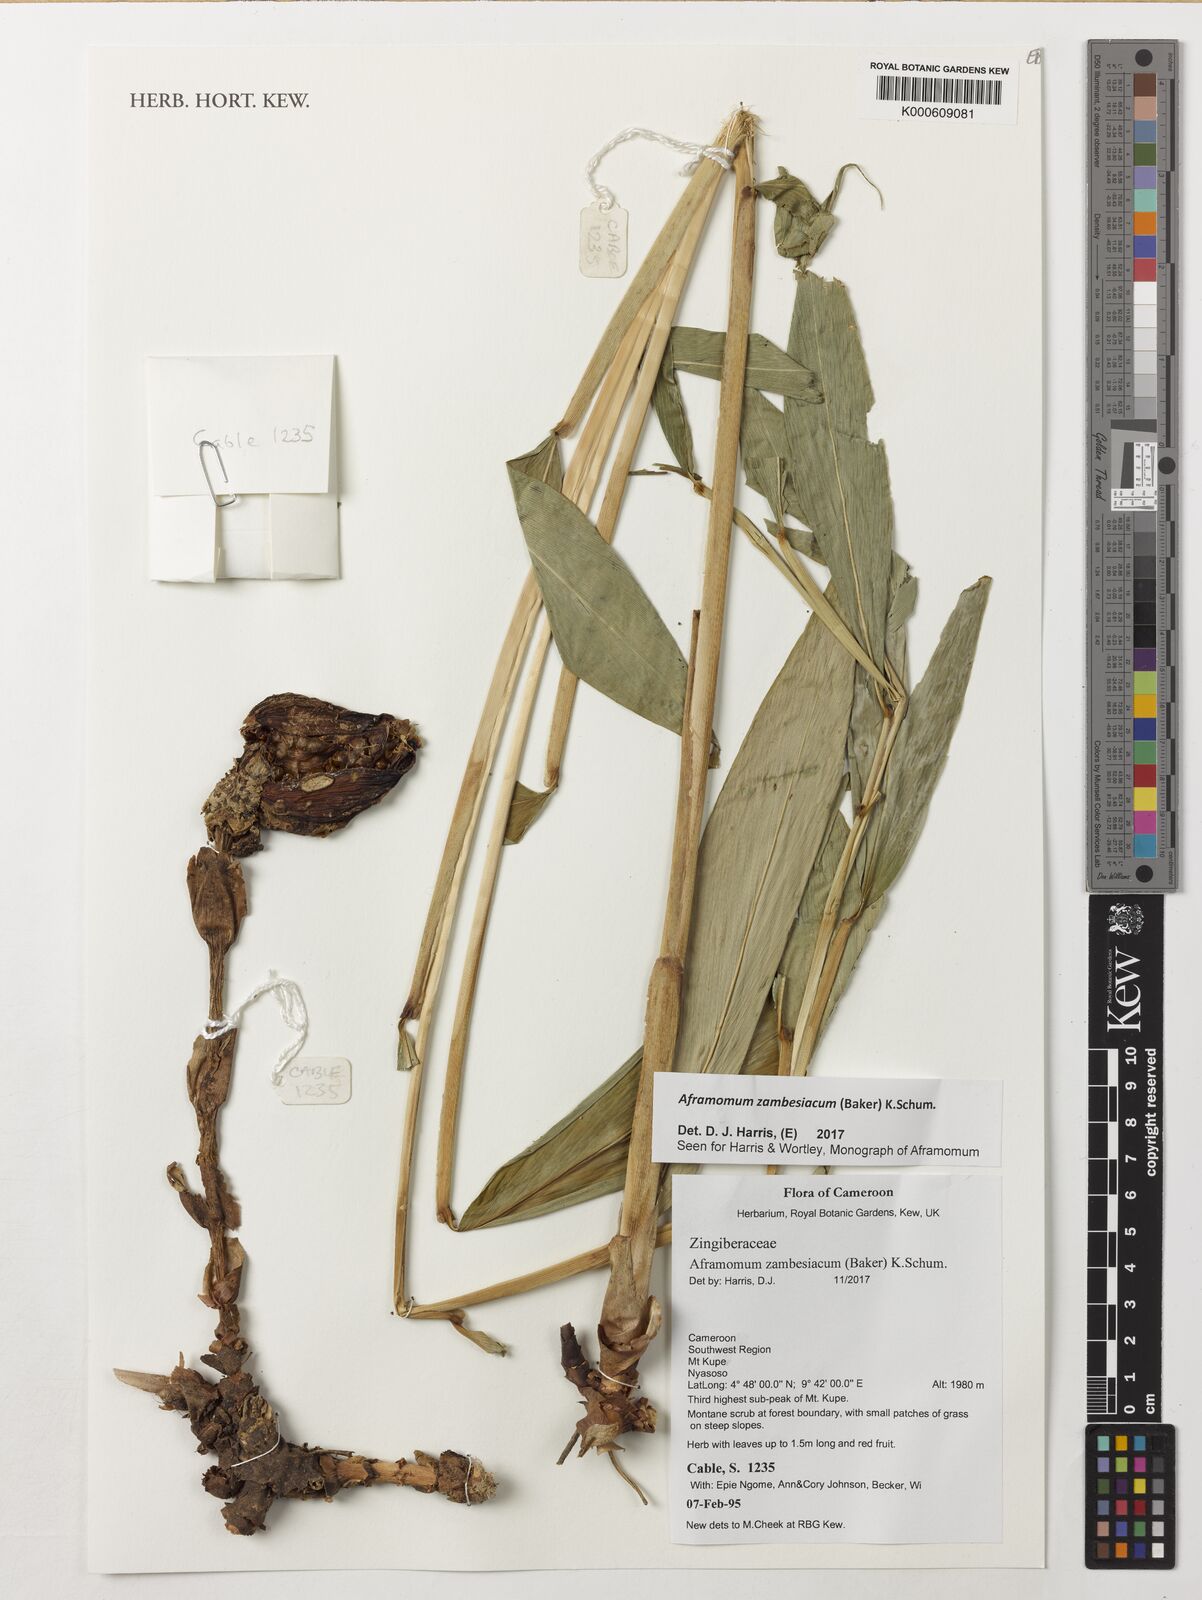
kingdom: Plantae
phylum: Tracheophyta
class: Liliopsida
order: Zingiberales
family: Zingiberaceae
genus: Aframomum
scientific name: Aframomum zambesiacum
